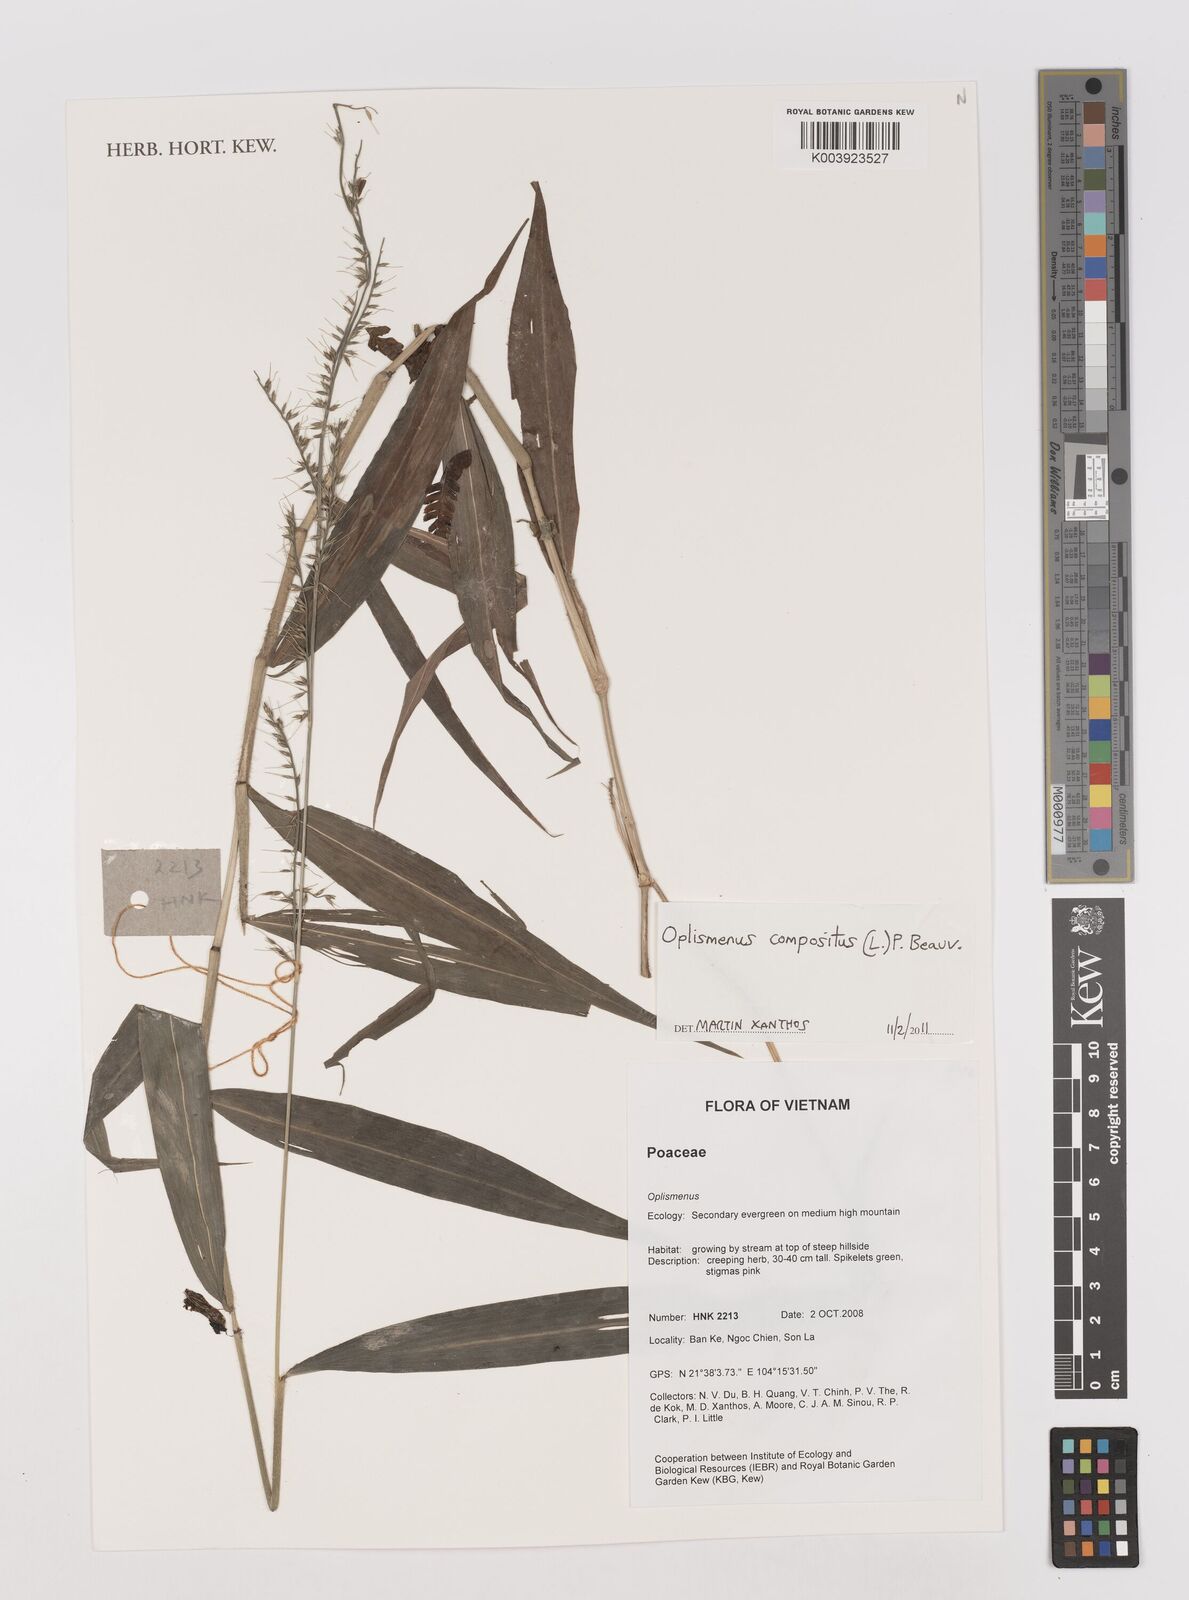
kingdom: Plantae
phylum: Tracheophyta
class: Liliopsida
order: Poales
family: Poaceae
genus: Oplismenus
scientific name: Oplismenus compositus
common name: Running mountain grass
